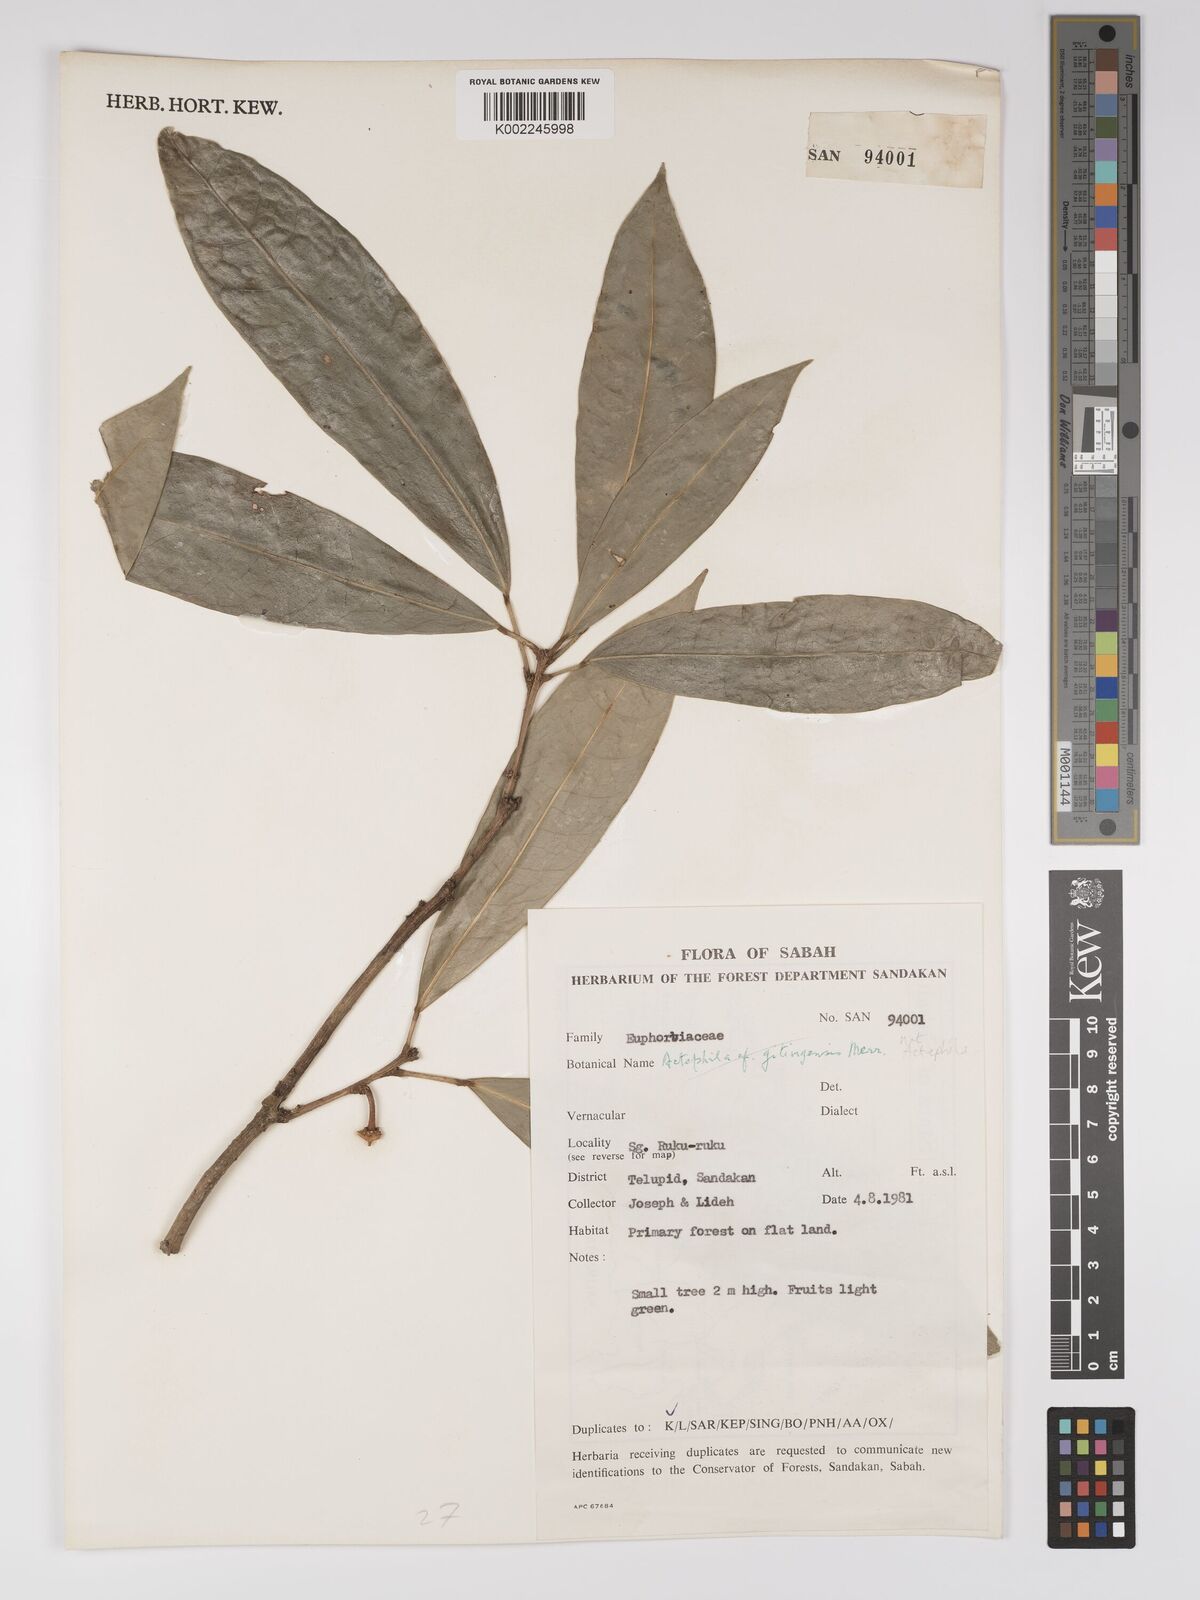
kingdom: Plantae
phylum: Tracheophyta
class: Magnoliopsida
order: Malpighiales
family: Euphorbiaceae
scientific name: Euphorbiaceae
